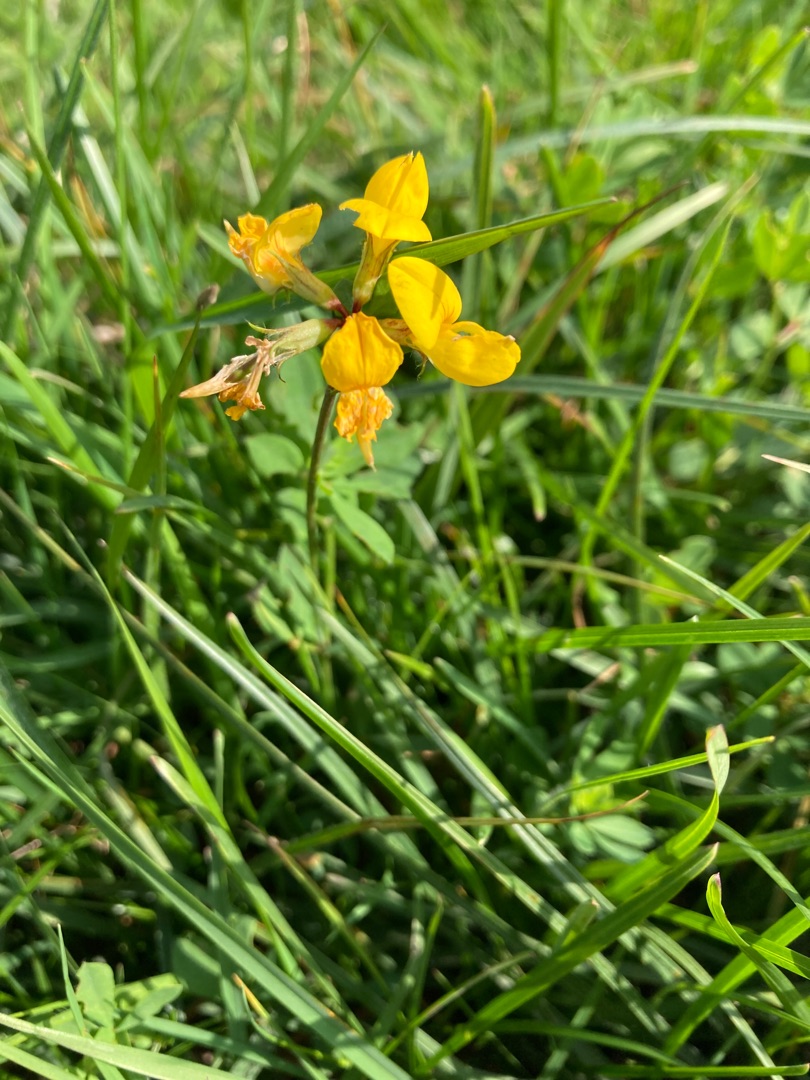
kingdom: Plantae
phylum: Tracheophyta
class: Magnoliopsida
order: Fabales
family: Fabaceae
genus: Lotus
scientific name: Lotus pedunculatus
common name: Sump-kællingetand
